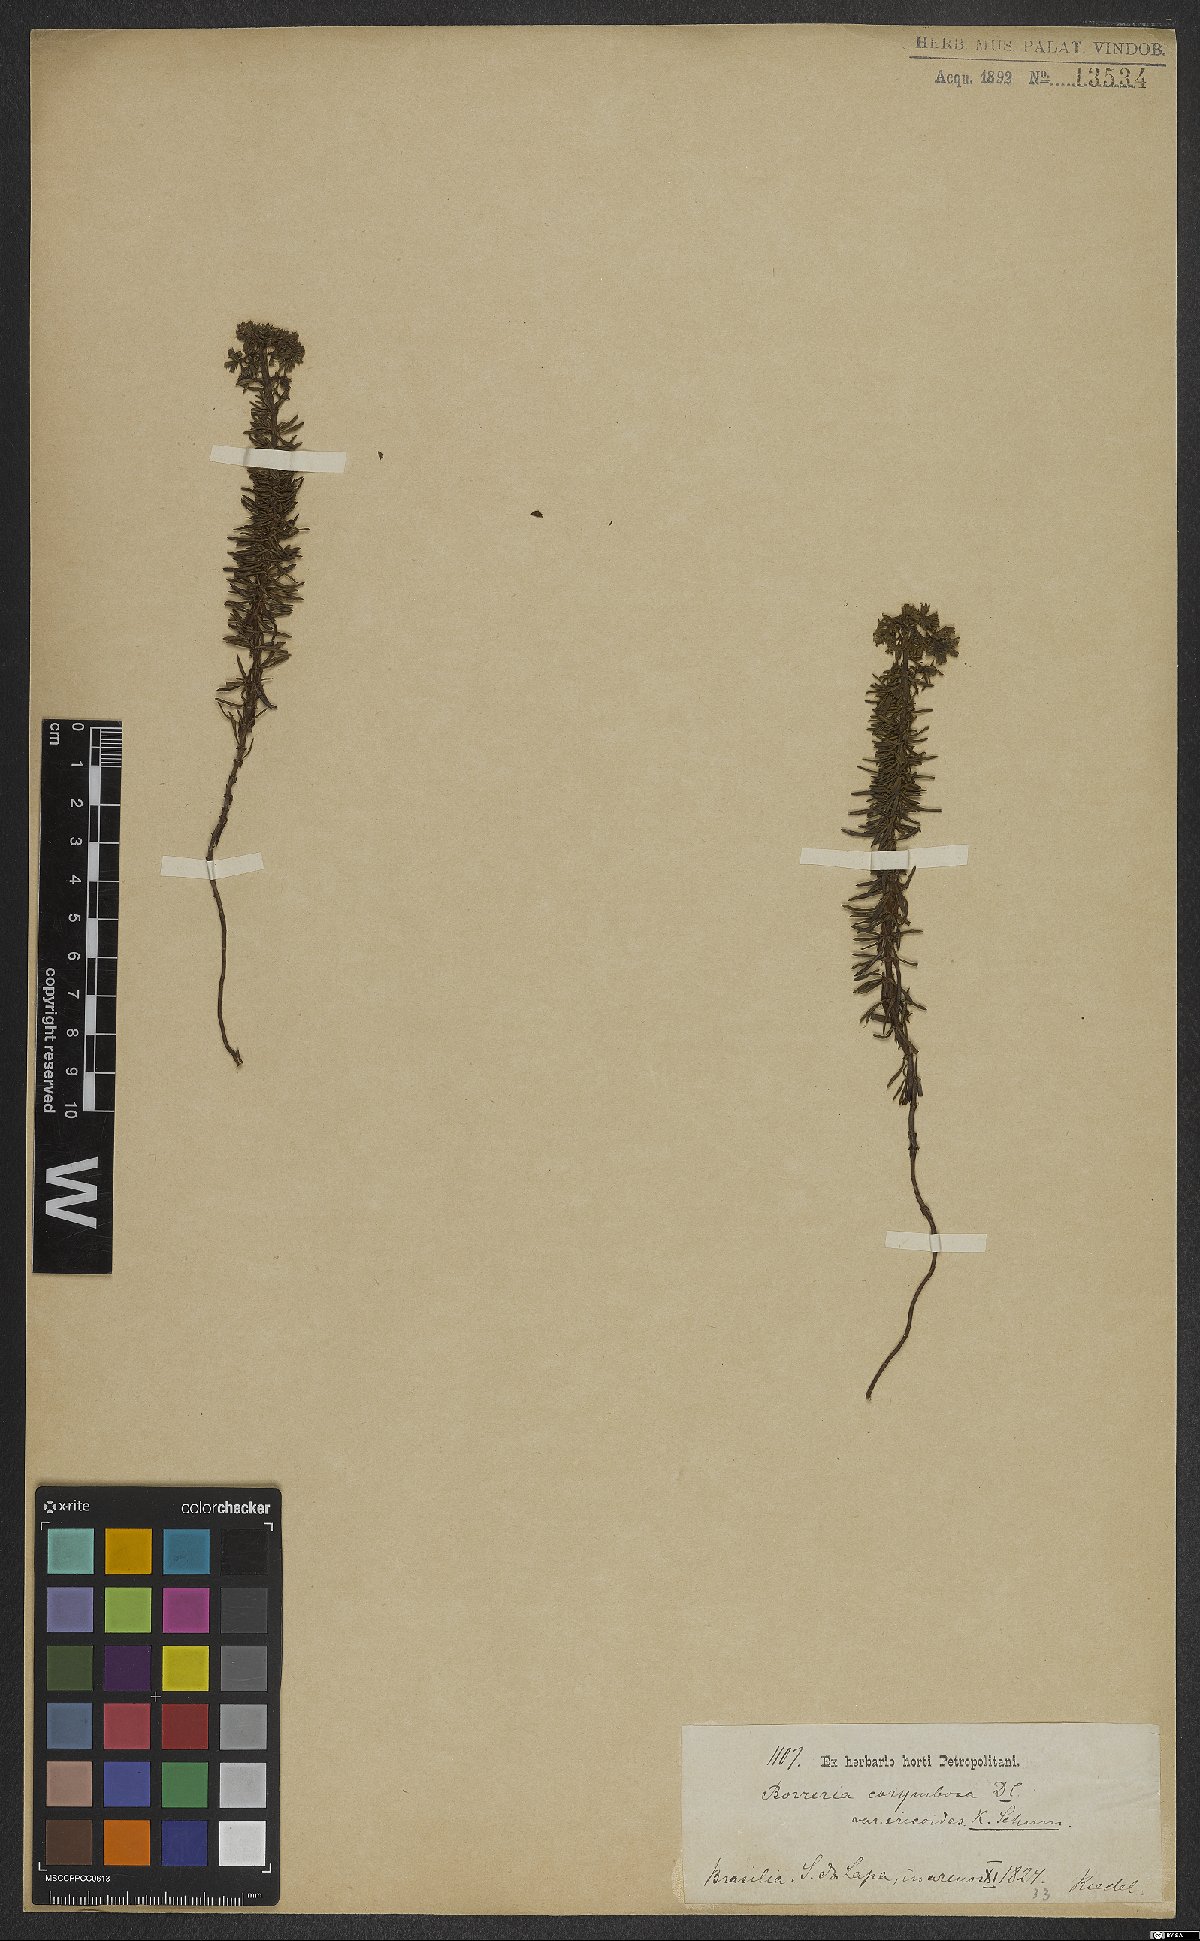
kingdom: Plantae
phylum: Tracheophyta
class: Magnoliopsida
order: Gentianales
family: Rubiaceae
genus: Galianthe
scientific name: Galianthe peruviana
